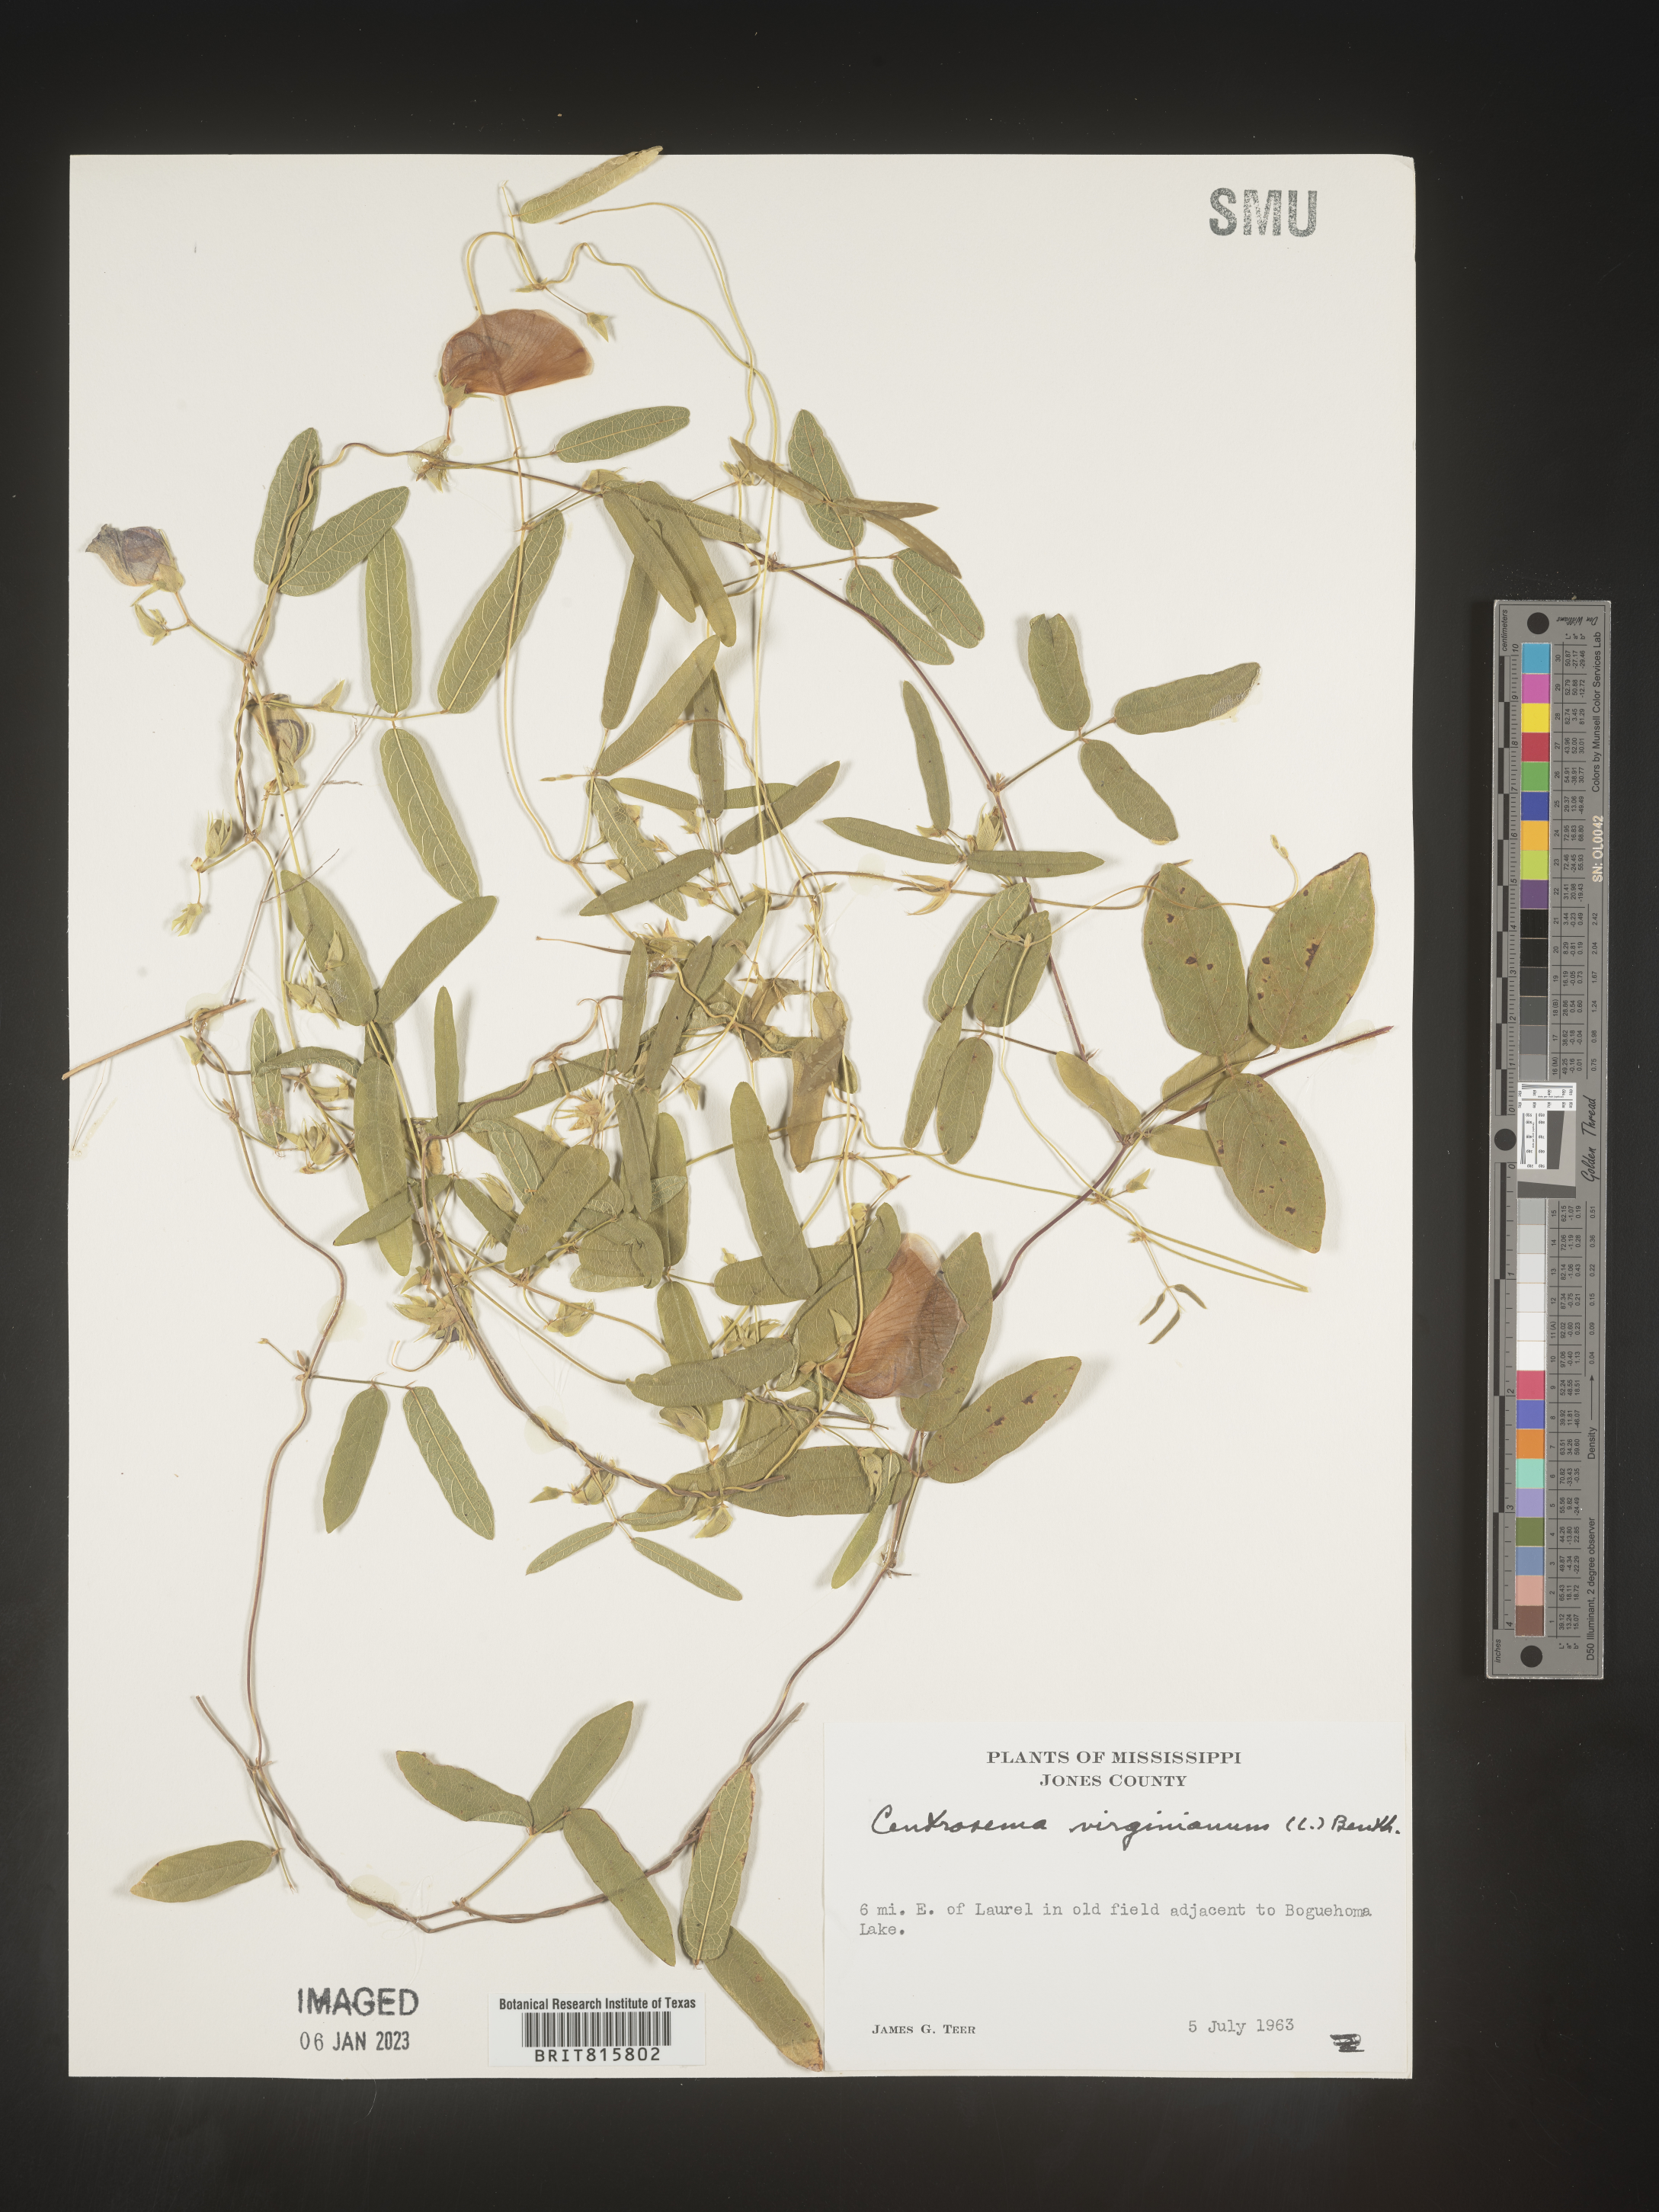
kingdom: Plantae
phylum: Tracheophyta
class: Magnoliopsida
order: Fabales
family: Fabaceae
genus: Centrosema
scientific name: Centrosema virginianum
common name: Butterfly-pea
